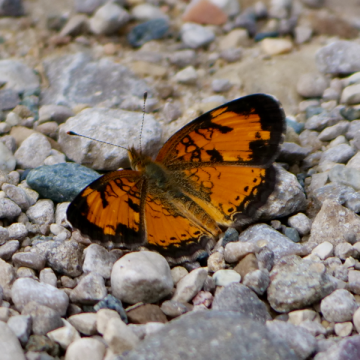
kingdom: Animalia
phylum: Arthropoda
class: Insecta
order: Lepidoptera
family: Nymphalidae
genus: Phyciodes
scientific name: Phyciodes tharos
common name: Northern Crescent
